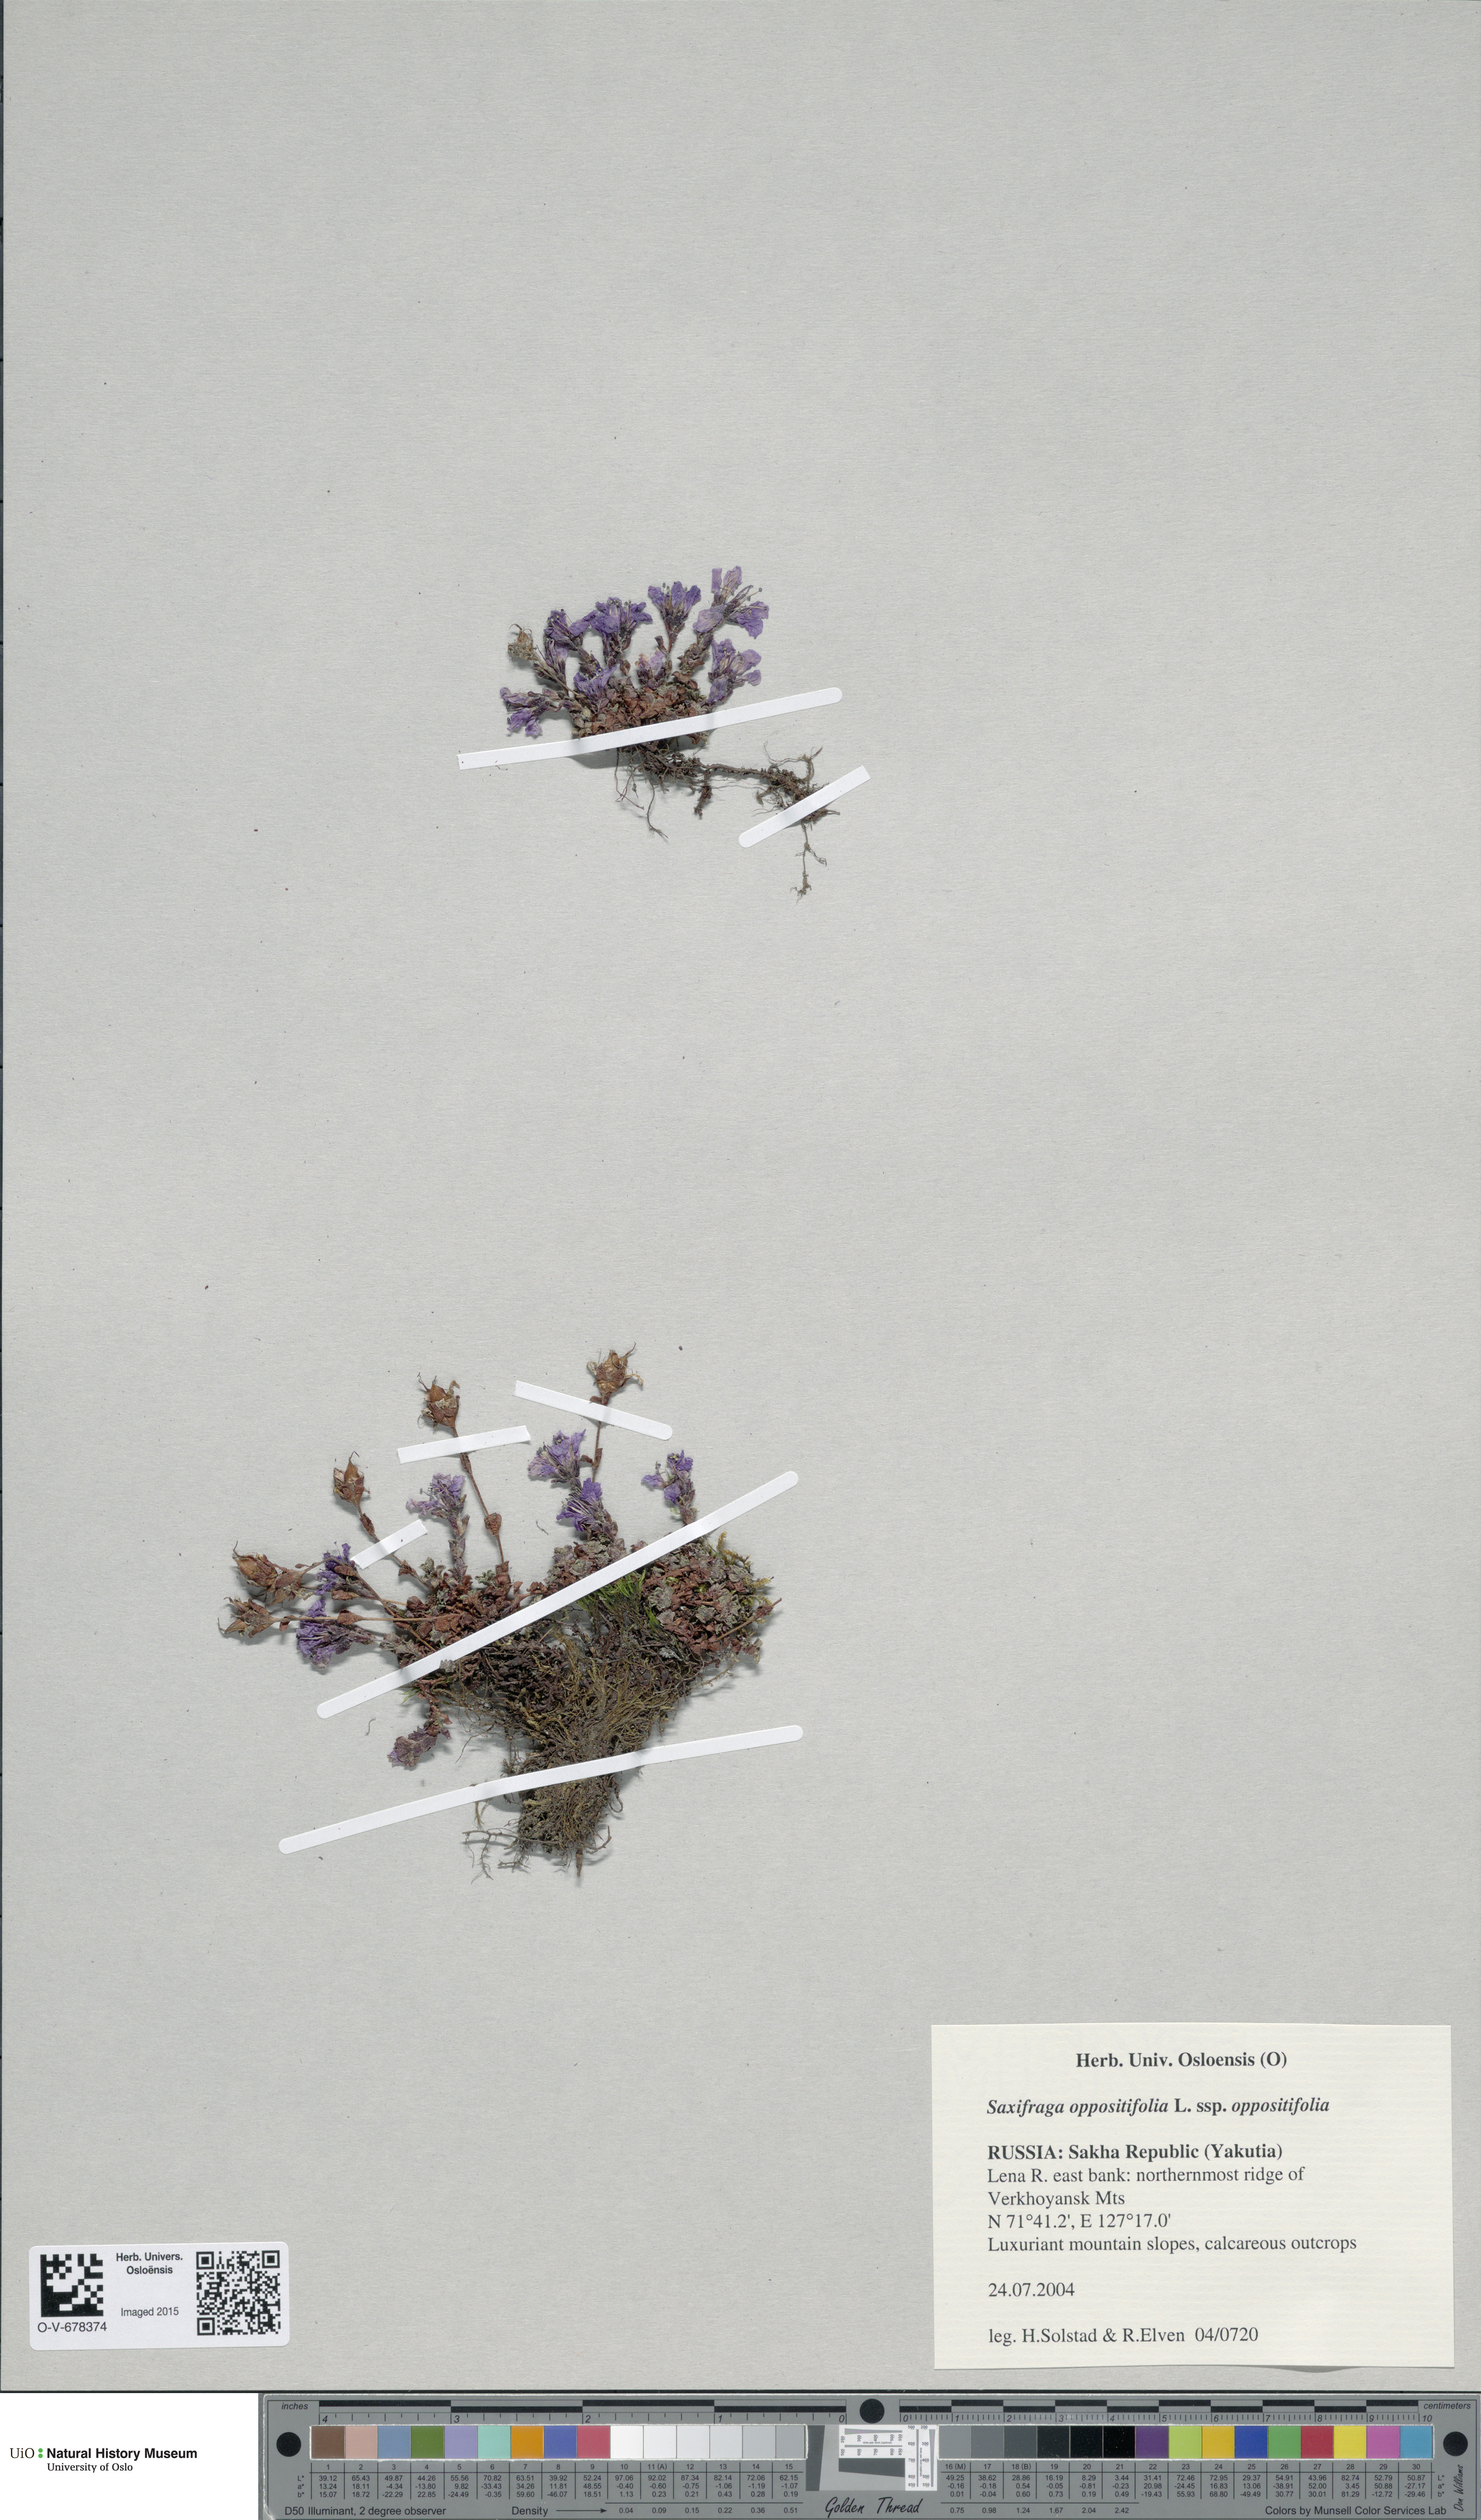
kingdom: Plantae
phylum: Tracheophyta
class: Magnoliopsida
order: Saxifragales
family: Saxifragaceae
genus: Saxifraga
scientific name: Saxifraga oppositifolia
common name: Purple saxifrage
